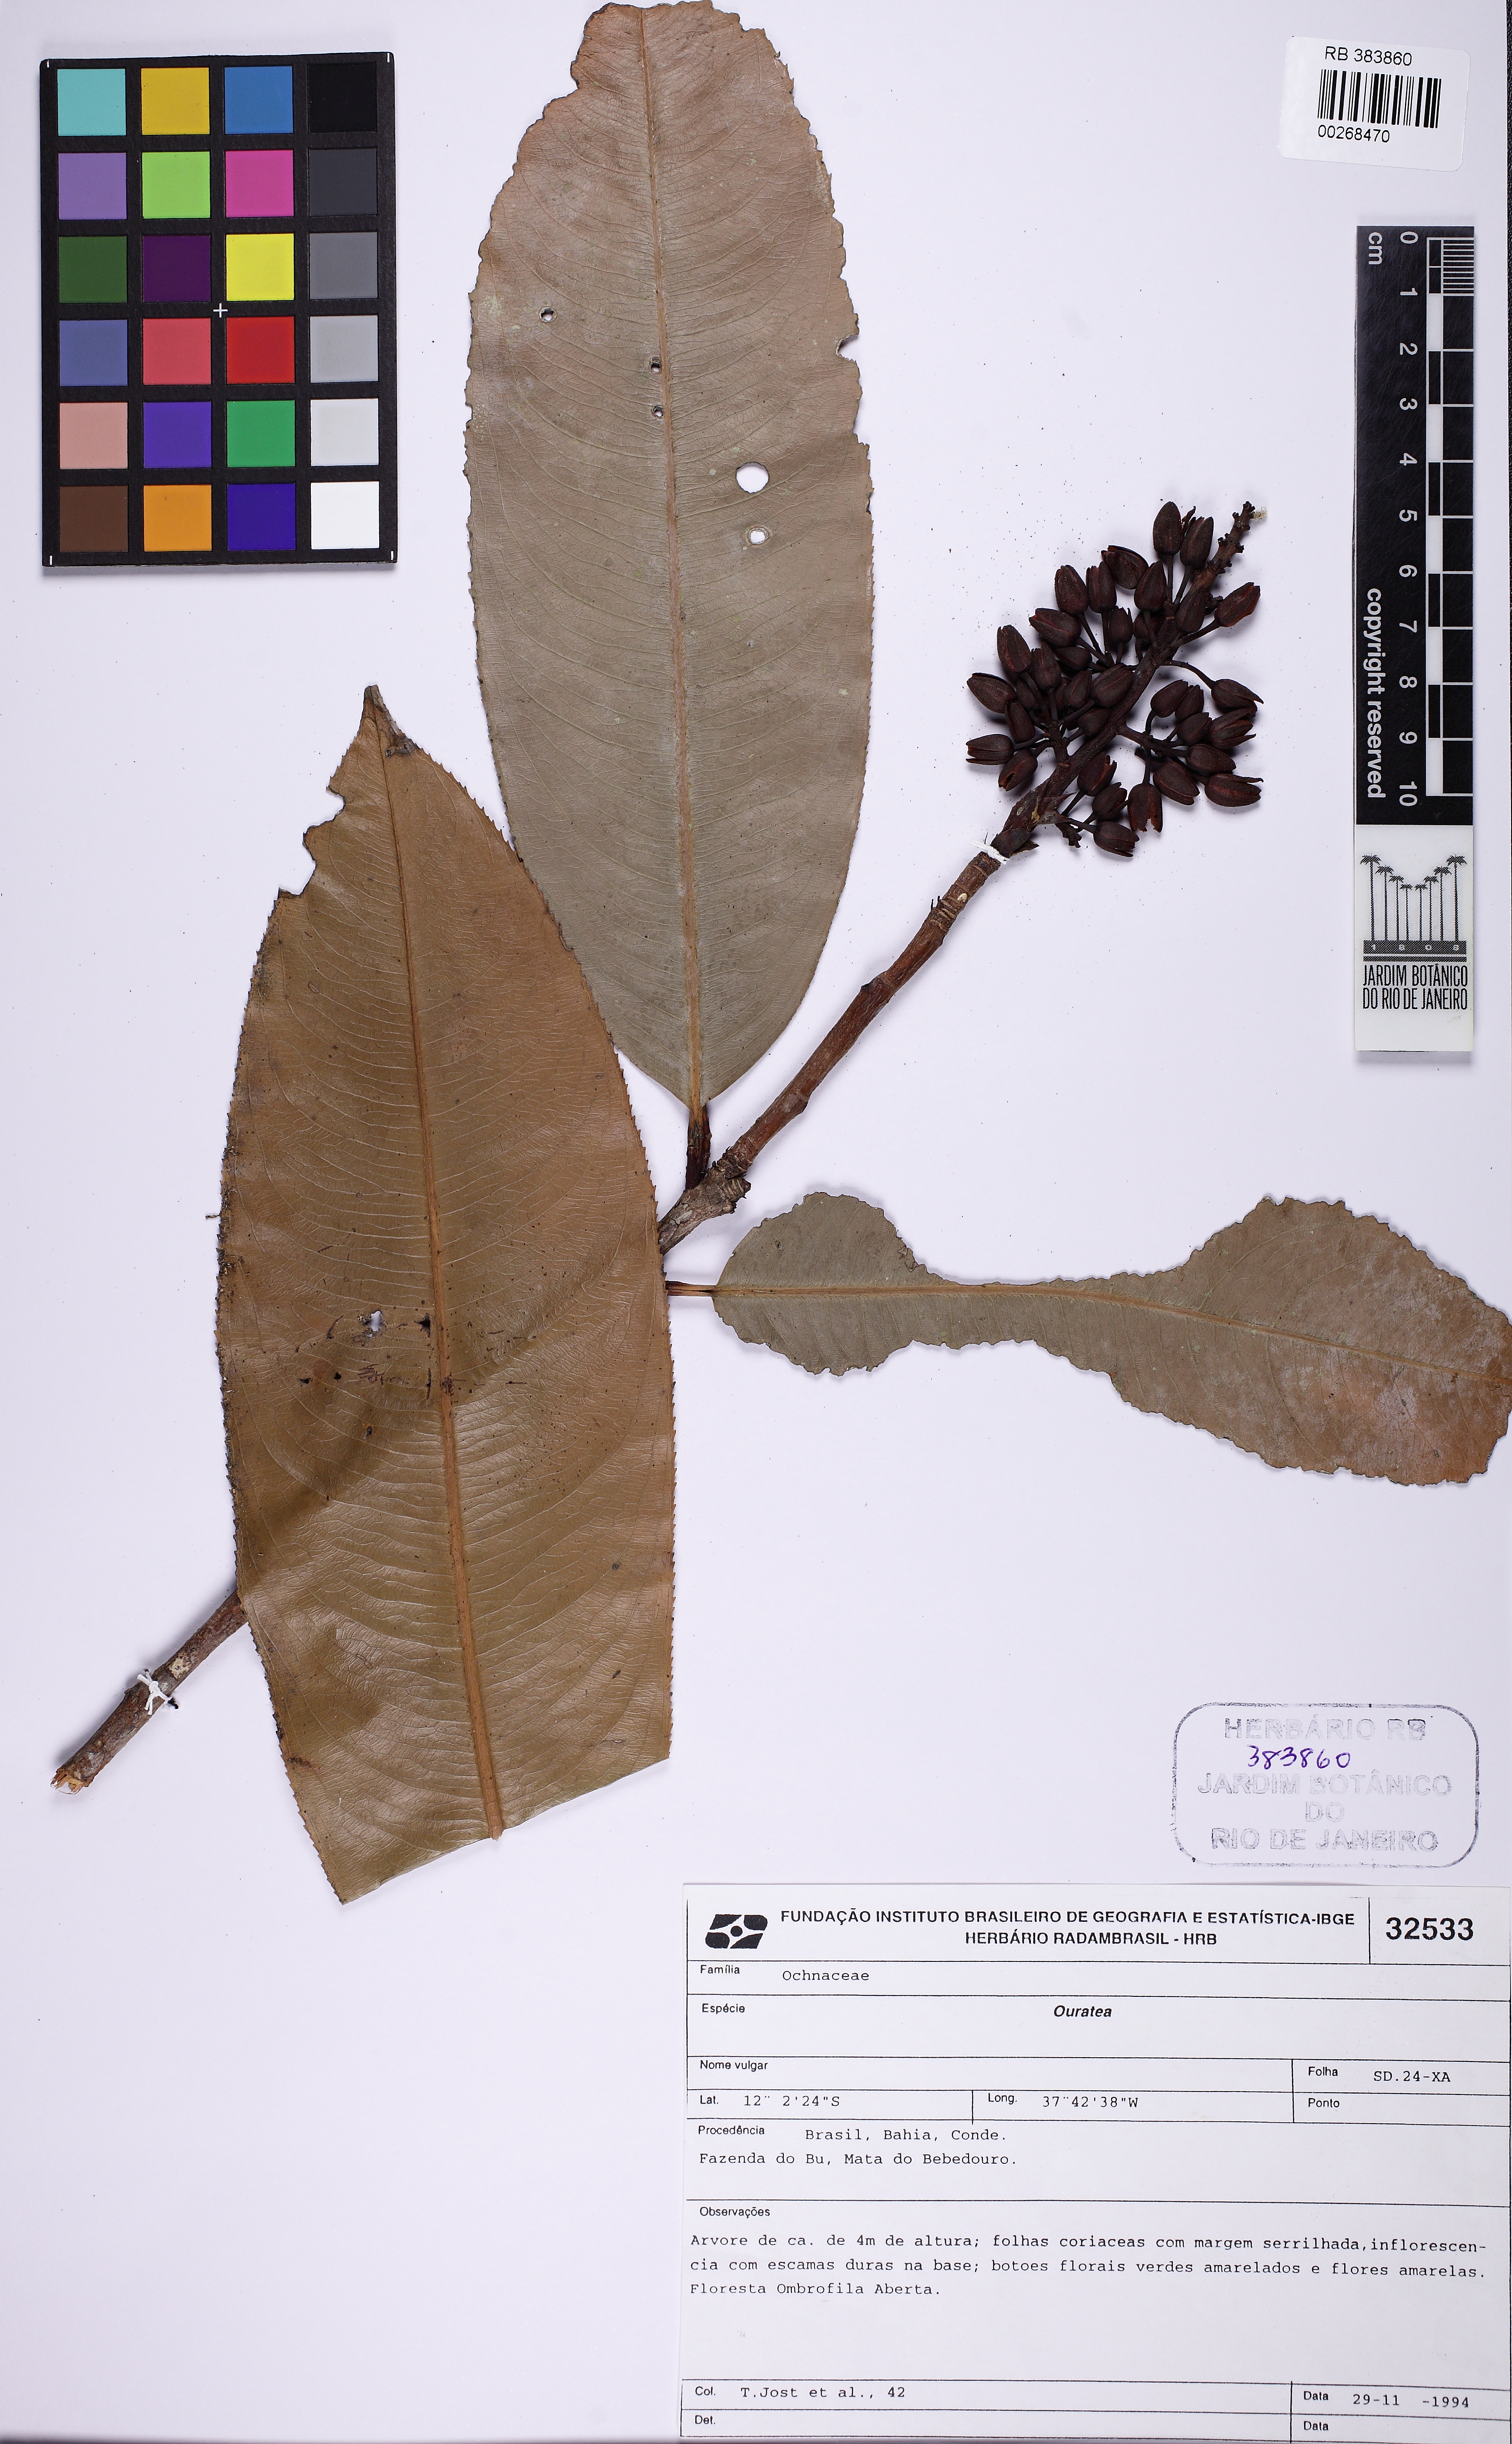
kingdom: Plantae
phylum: Tracheophyta
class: Magnoliopsida
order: Malpighiales
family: Ochnaceae
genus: Ouratea
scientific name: Ouratea gigantophylla
